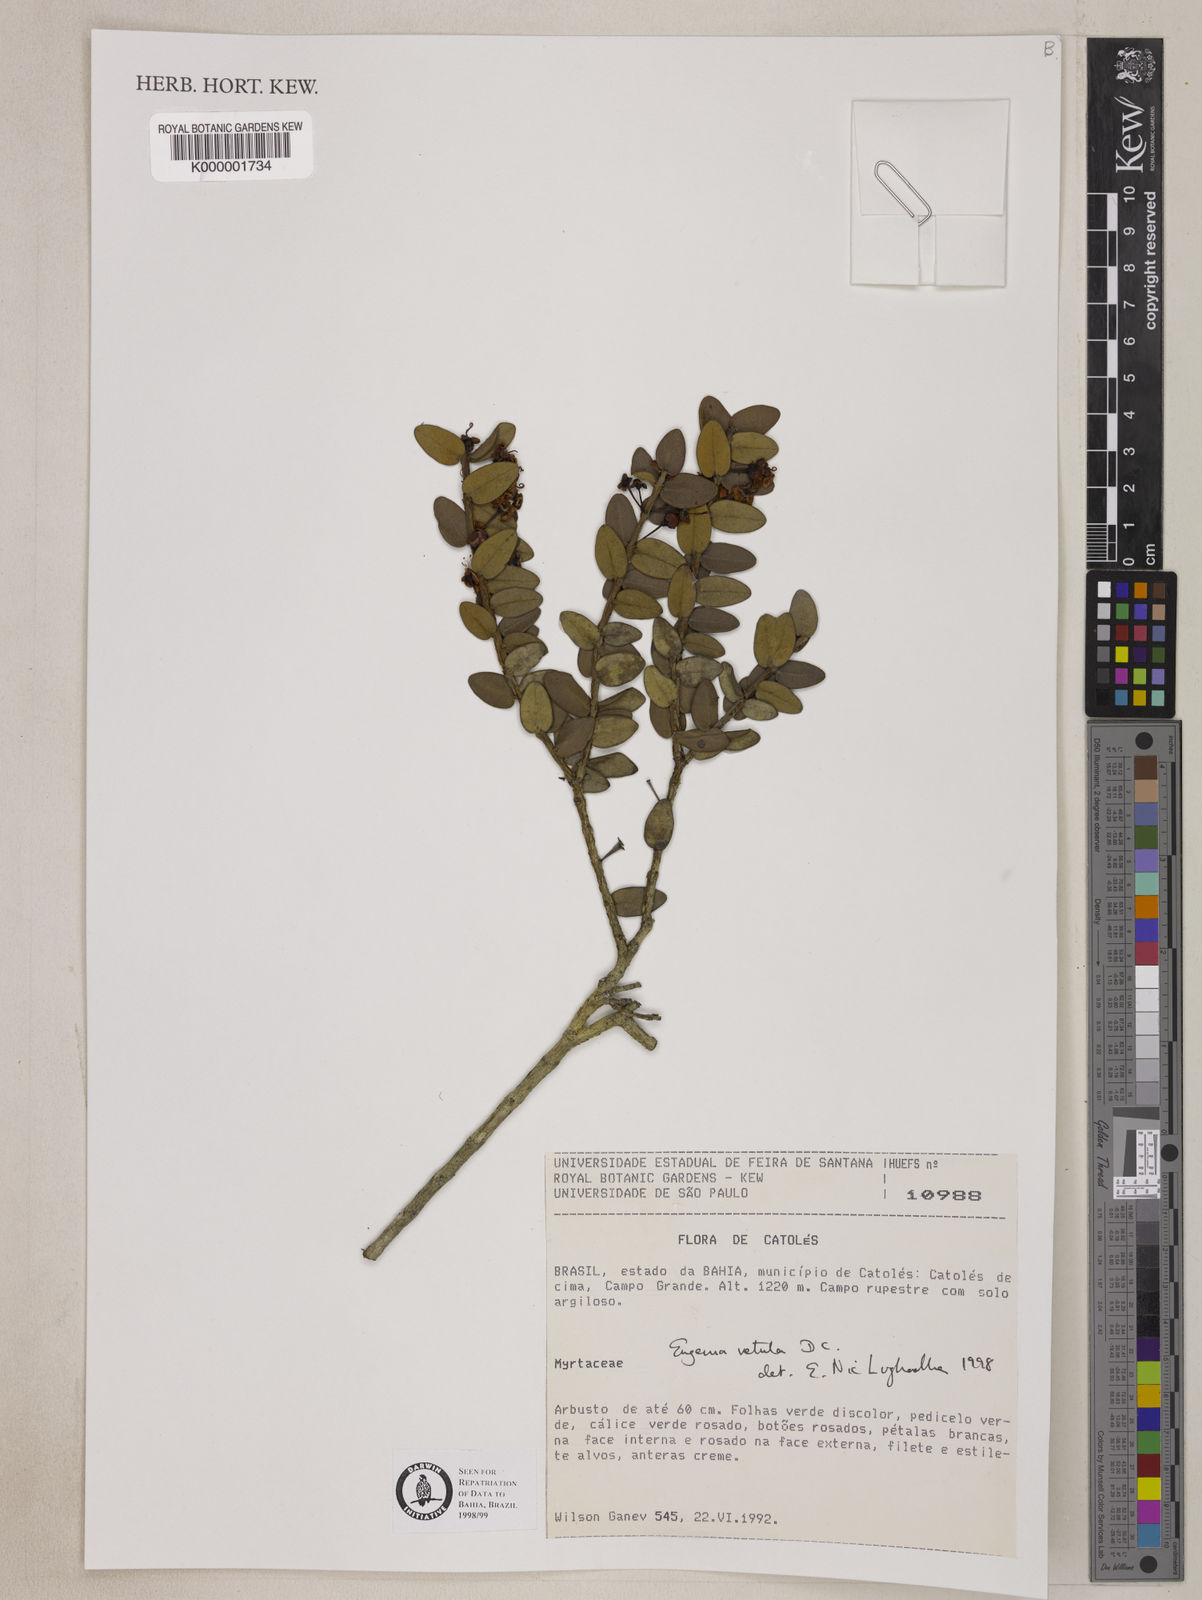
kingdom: Plantae
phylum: Tracheophyta
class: Magnoliopsida
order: Myrtales
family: Myrtaceae
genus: Eugenia
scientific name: Eugenia vetula
